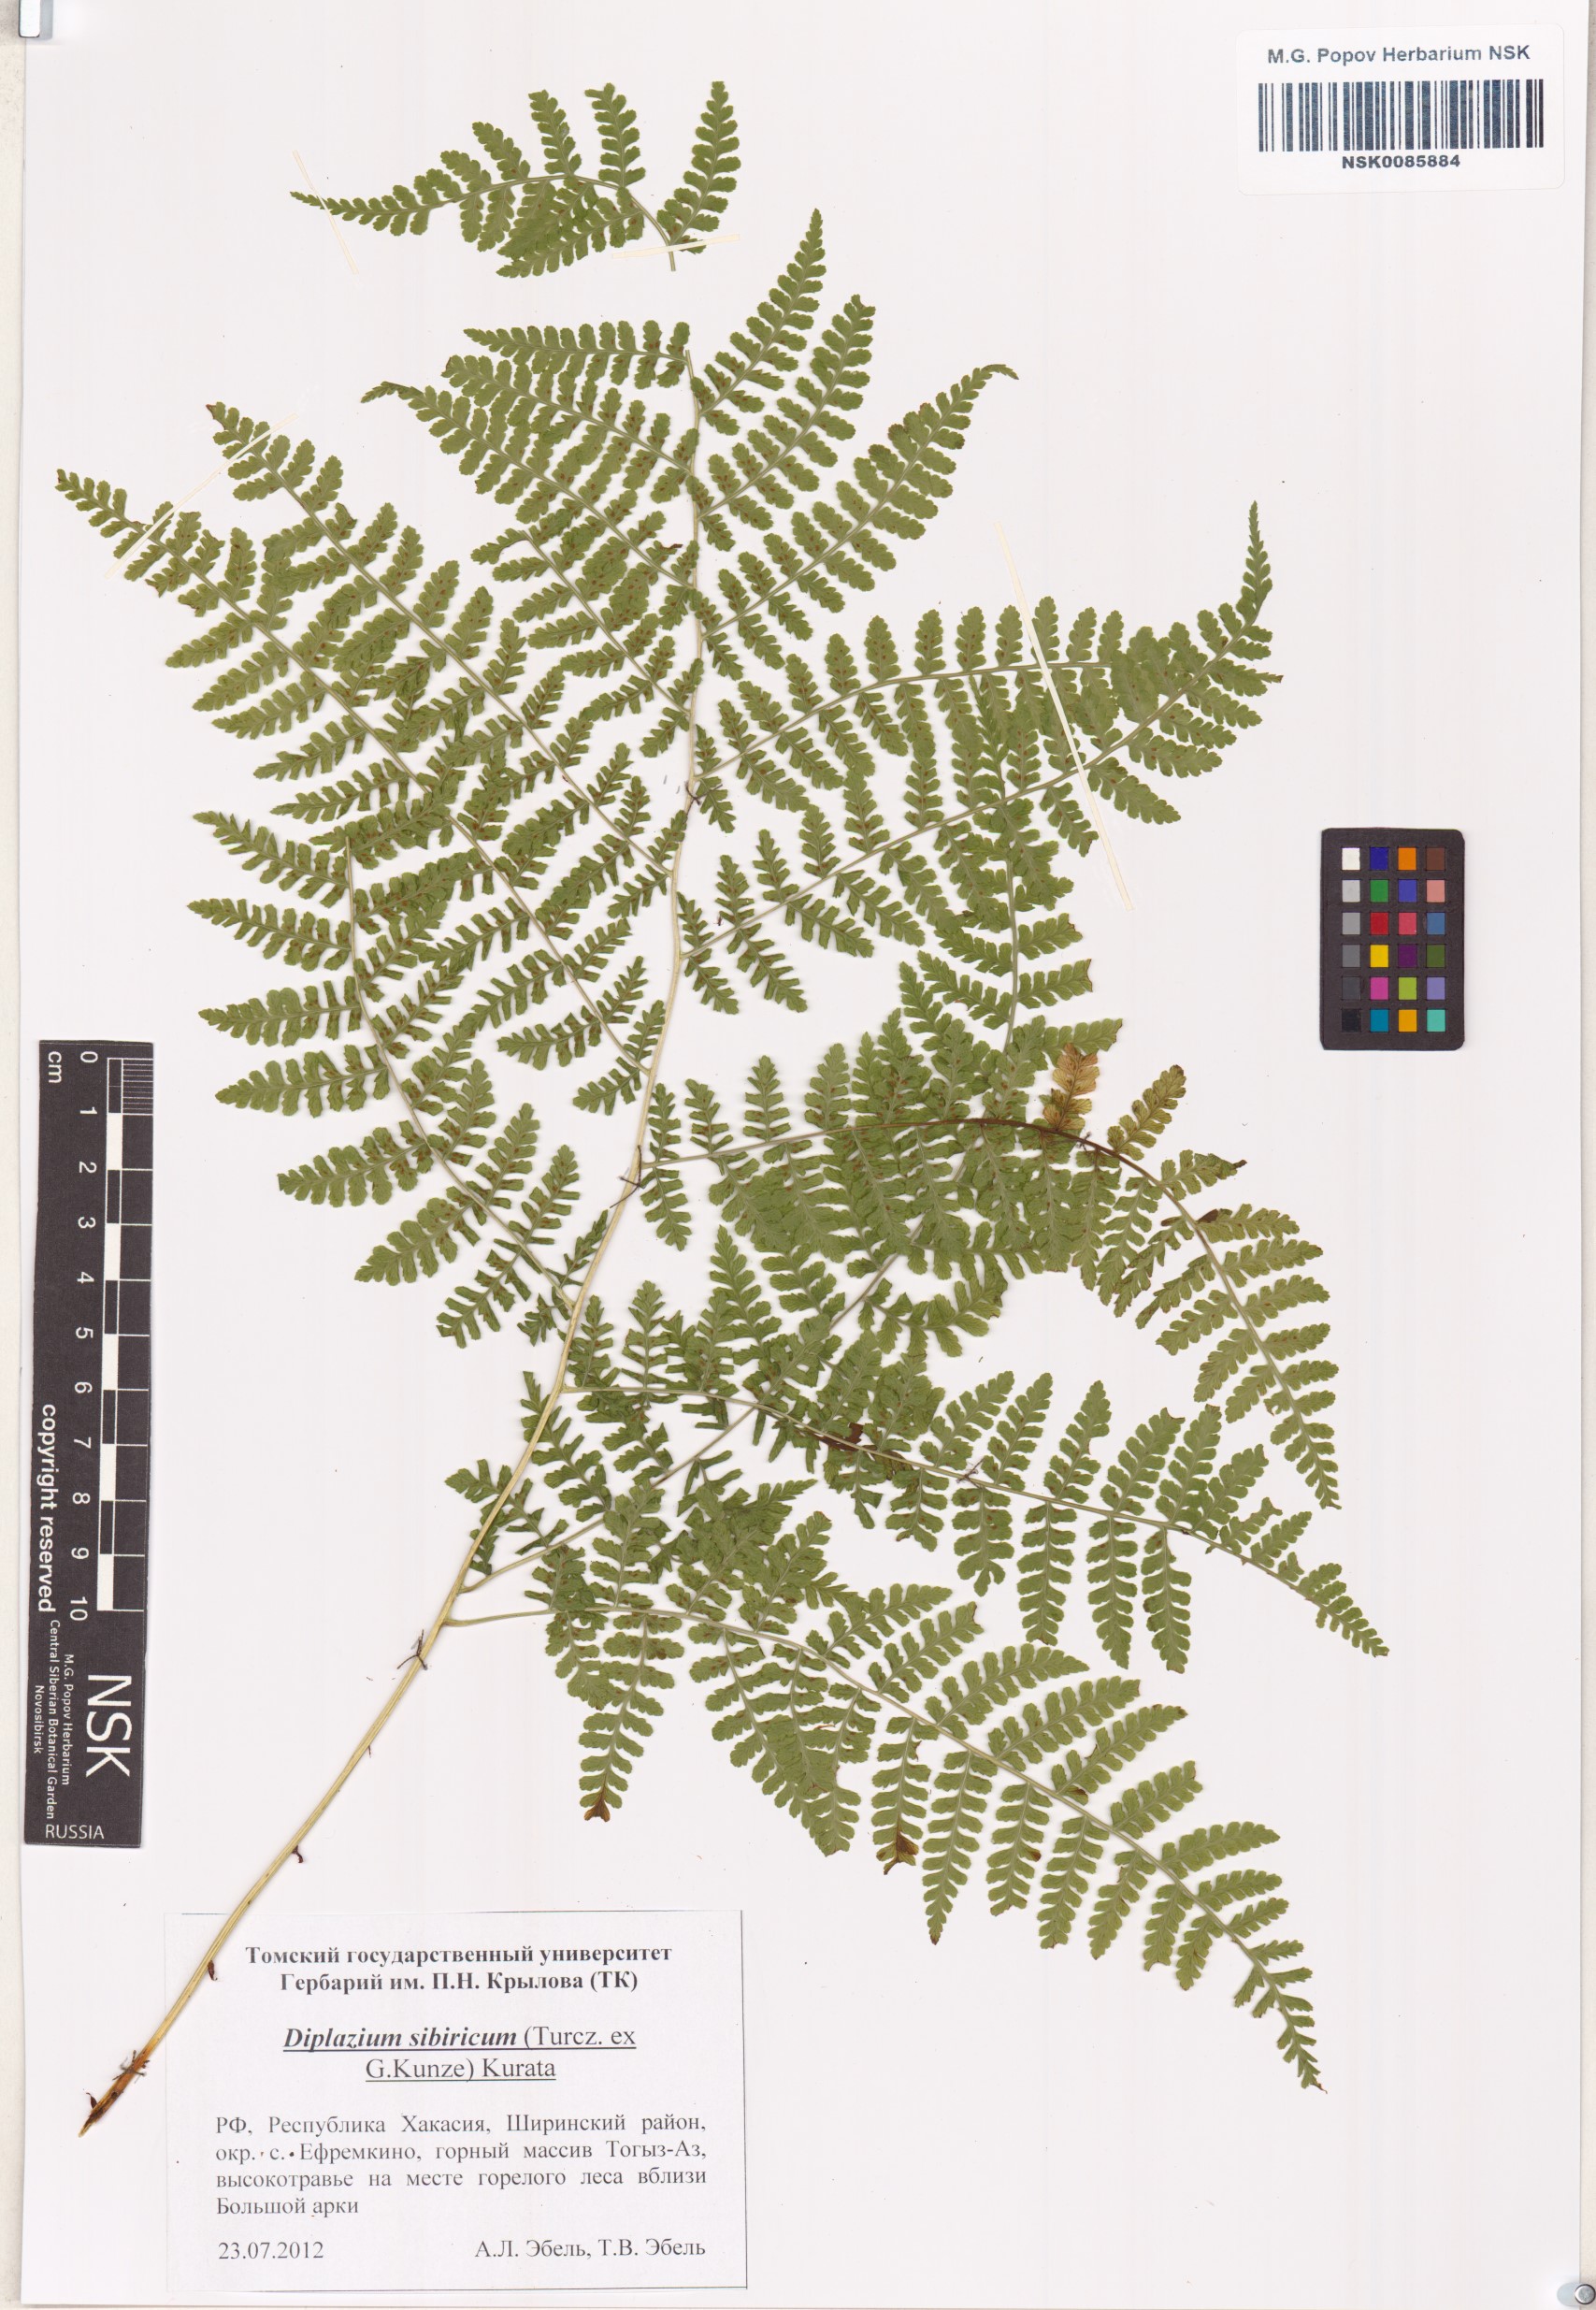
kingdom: Plantae
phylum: Tracheophyta
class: Polypodiopsida
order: Polypodiales
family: Athyriaceae
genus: Diplazium
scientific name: Diplazium sibiricum
